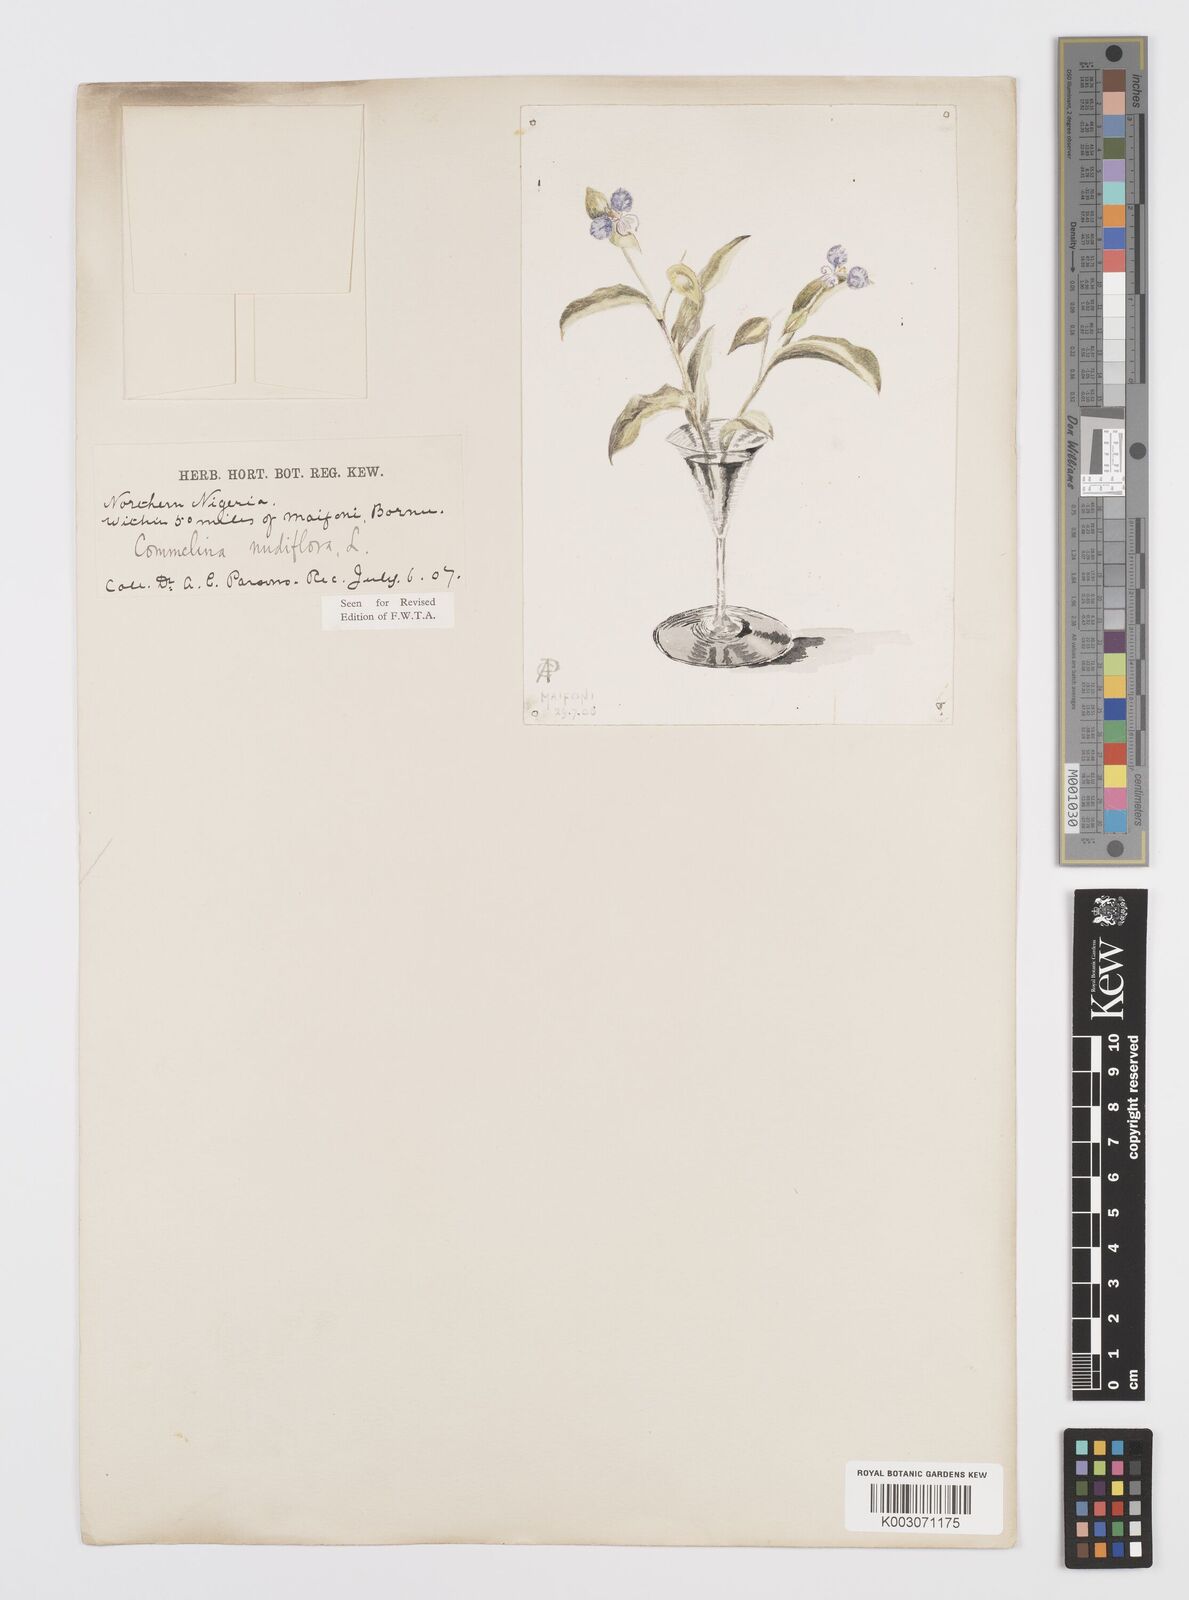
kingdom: Plantae
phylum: Tracheophyta
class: Liliopsida
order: Commelinales
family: Commelinaceae
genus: Commelina
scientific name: Commelina diffusa
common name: Climbing dayflower
